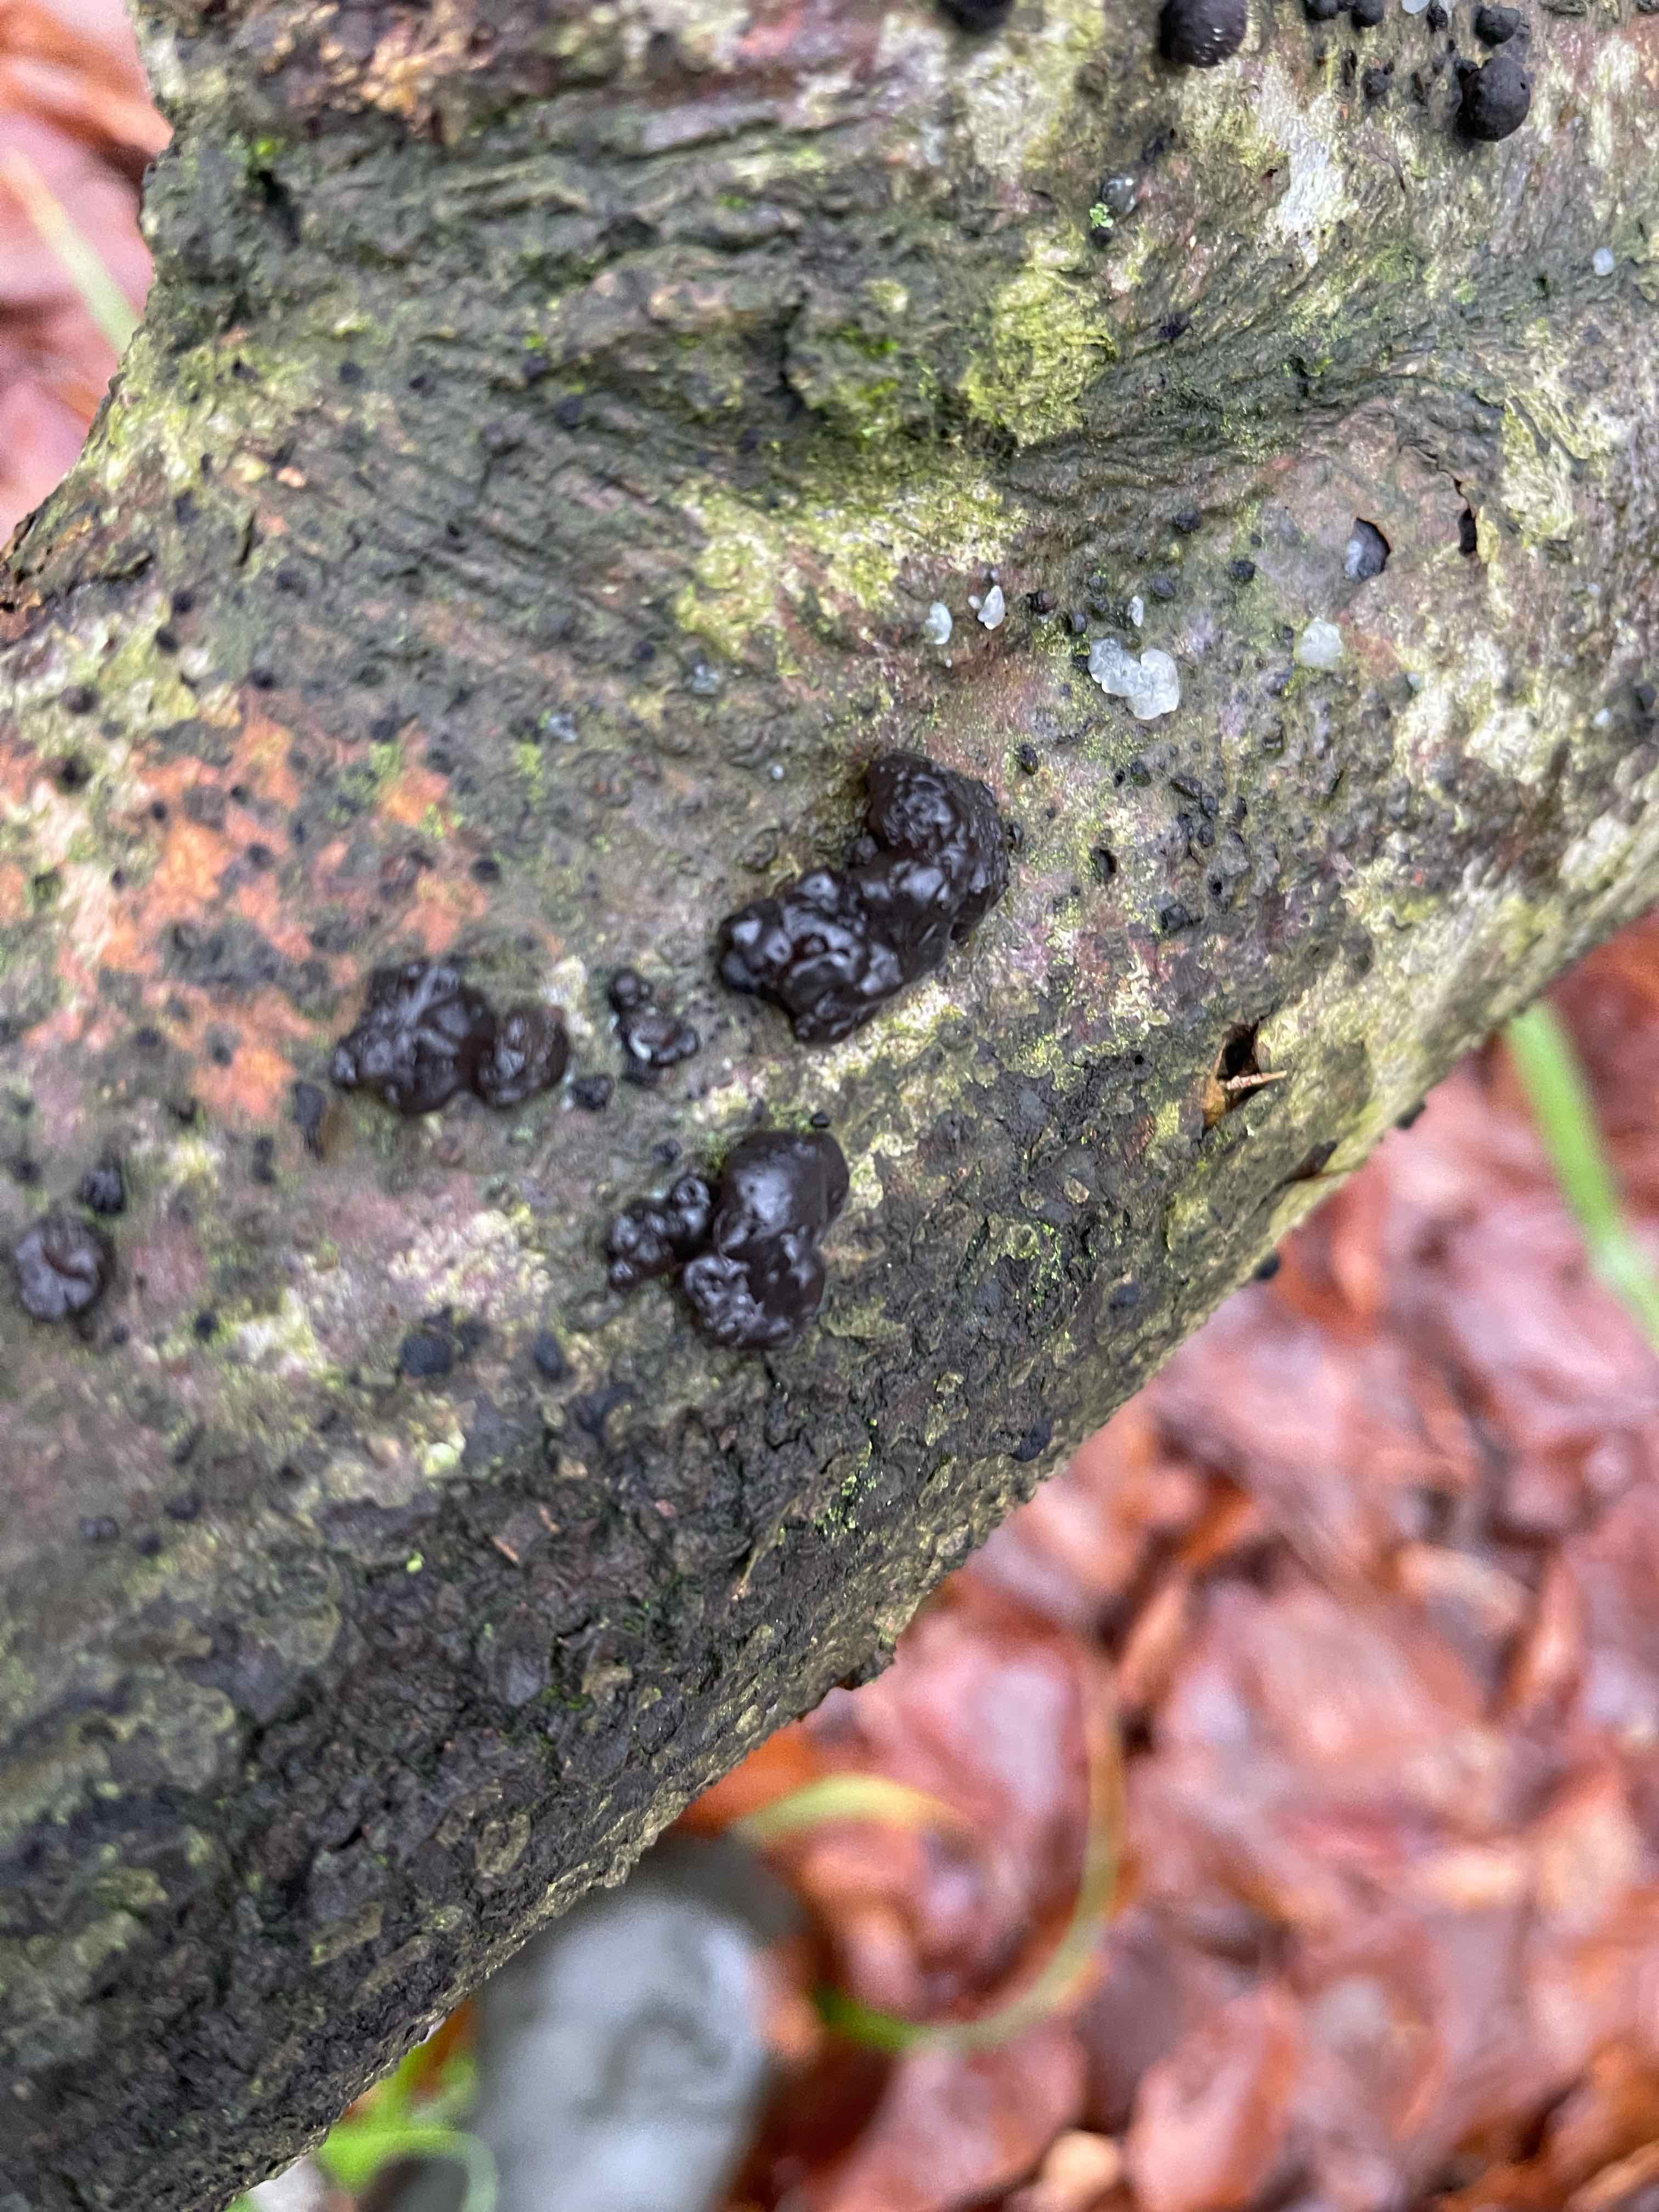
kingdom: Fungi
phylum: Basidiomycota
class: Agaricomycetes
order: Auriculariales
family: Auriculariaceae
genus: Exidia
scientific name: Exidia nigricans
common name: almindelig bævretop
